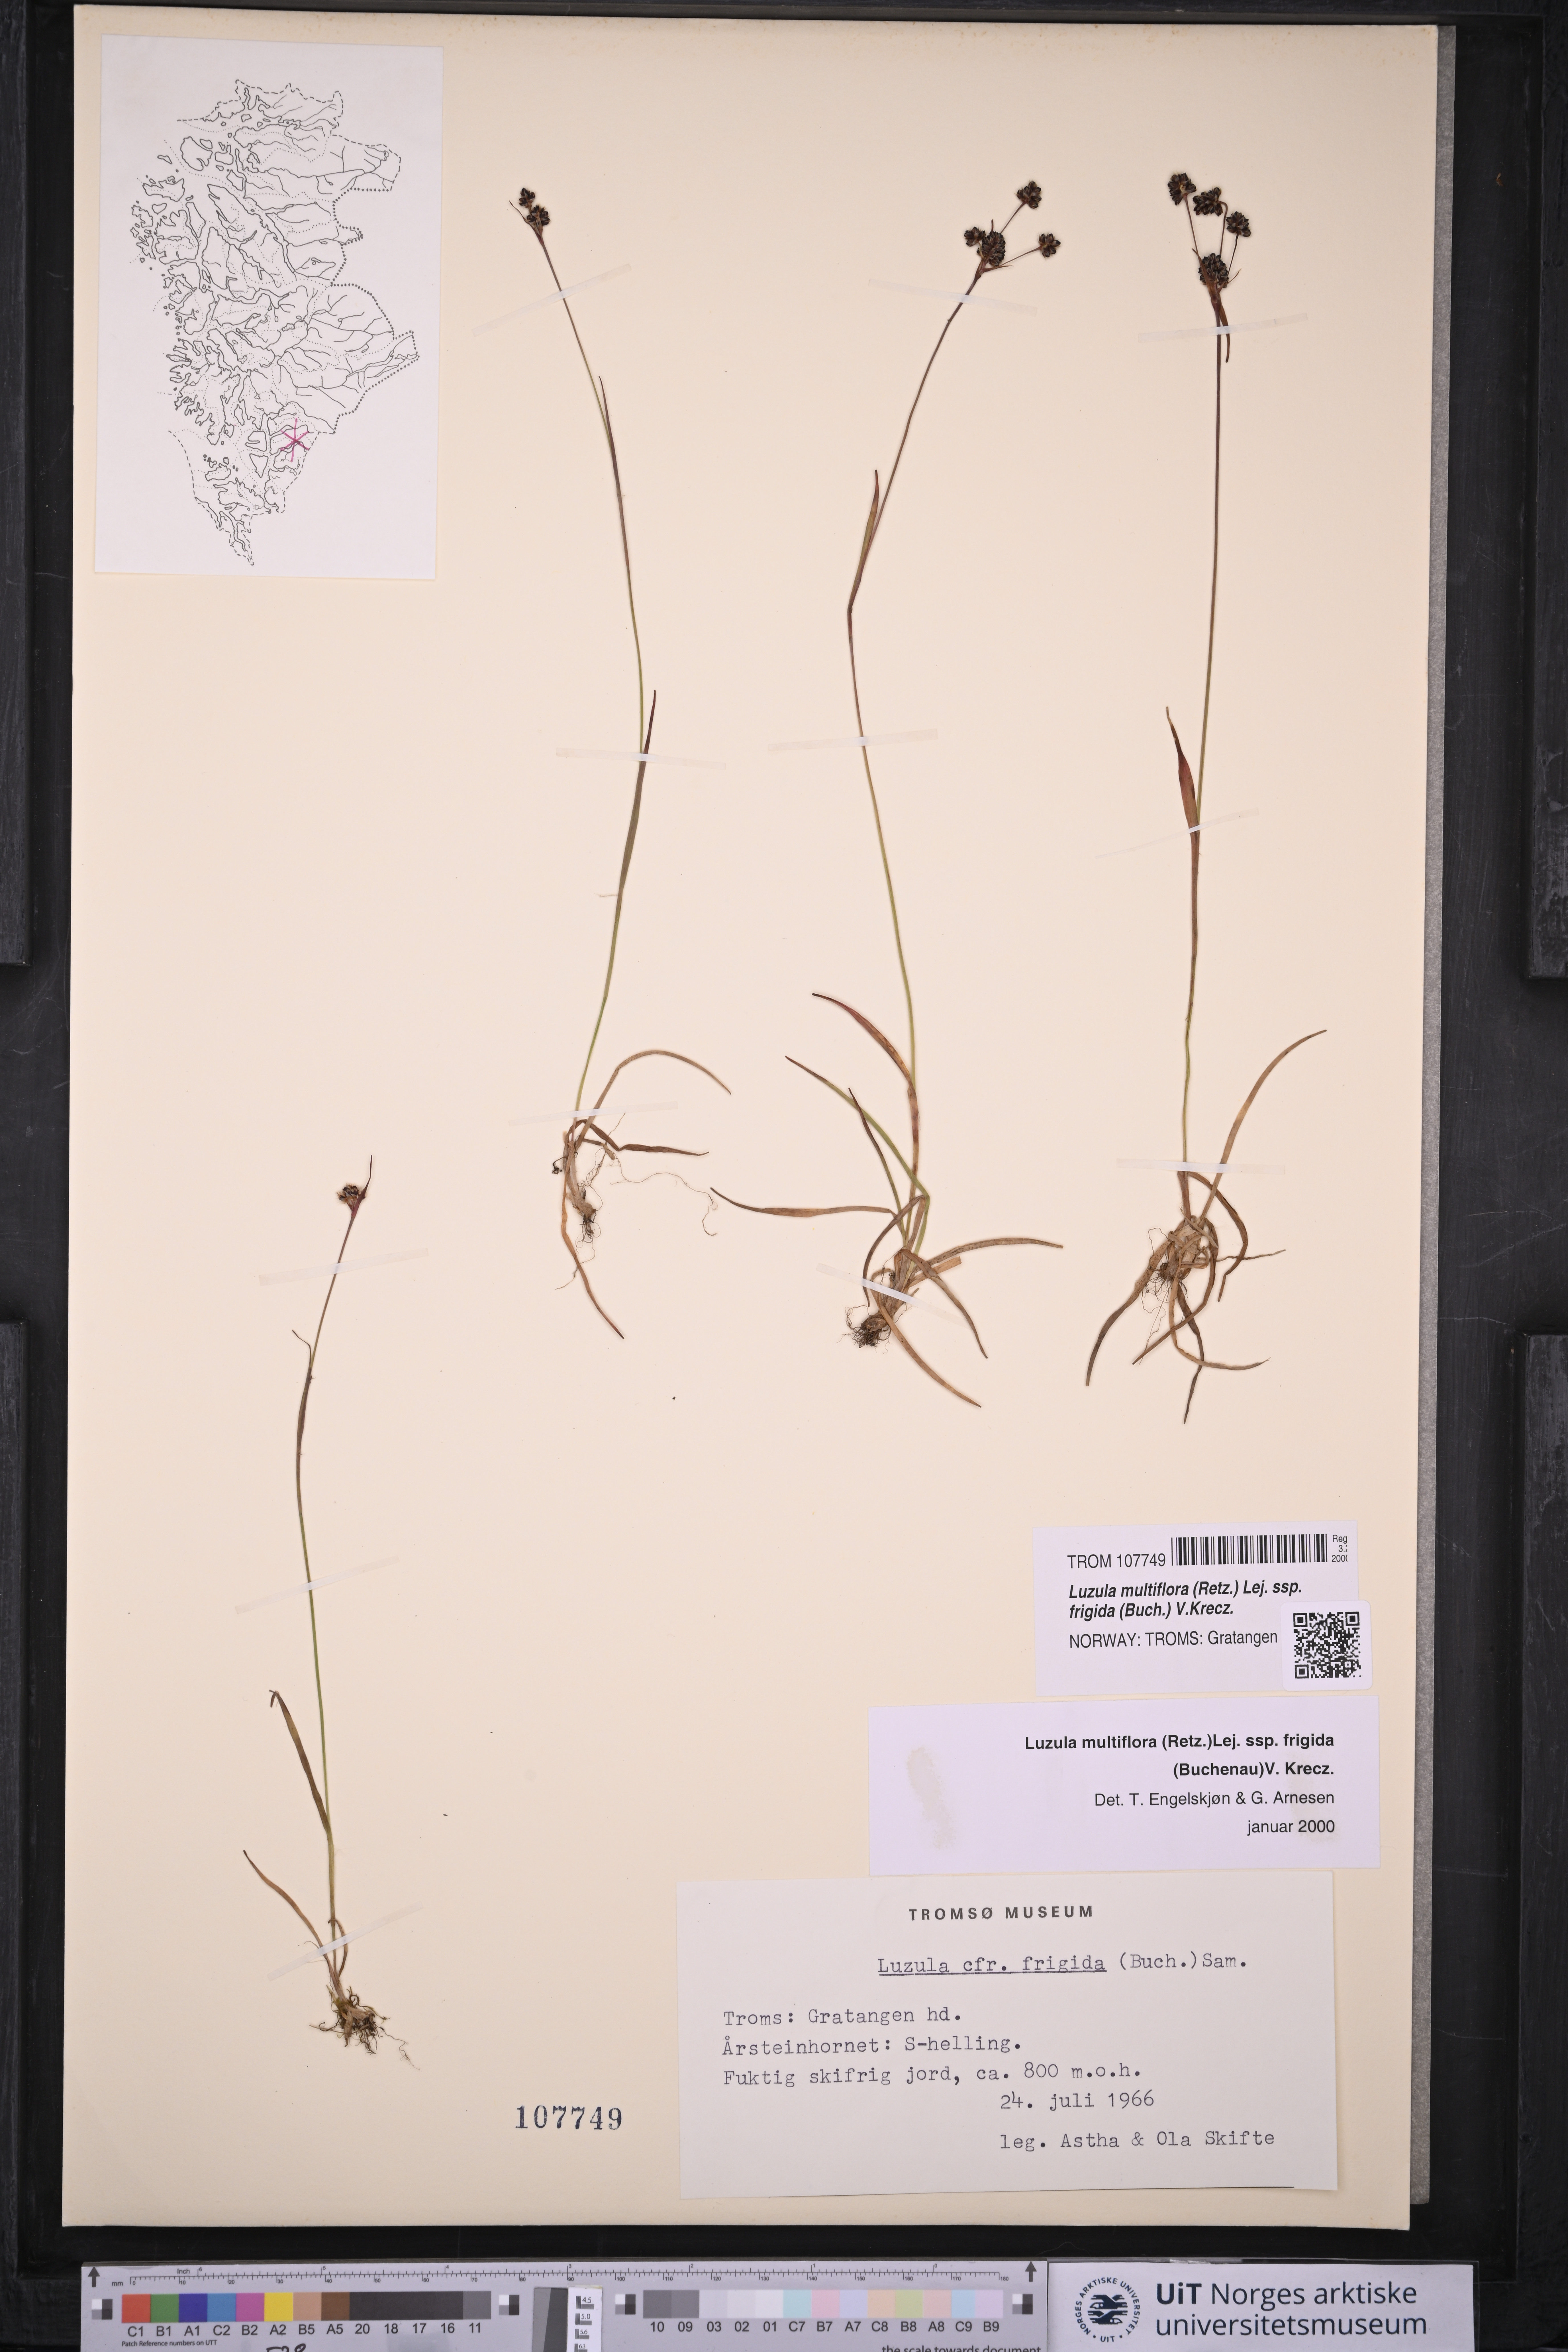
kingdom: Plantae
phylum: Tracheophyta
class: Liliopsida
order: Poales
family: Juncaceae
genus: Luzula
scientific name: Luzula multiflora
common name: Heath wood-rush
